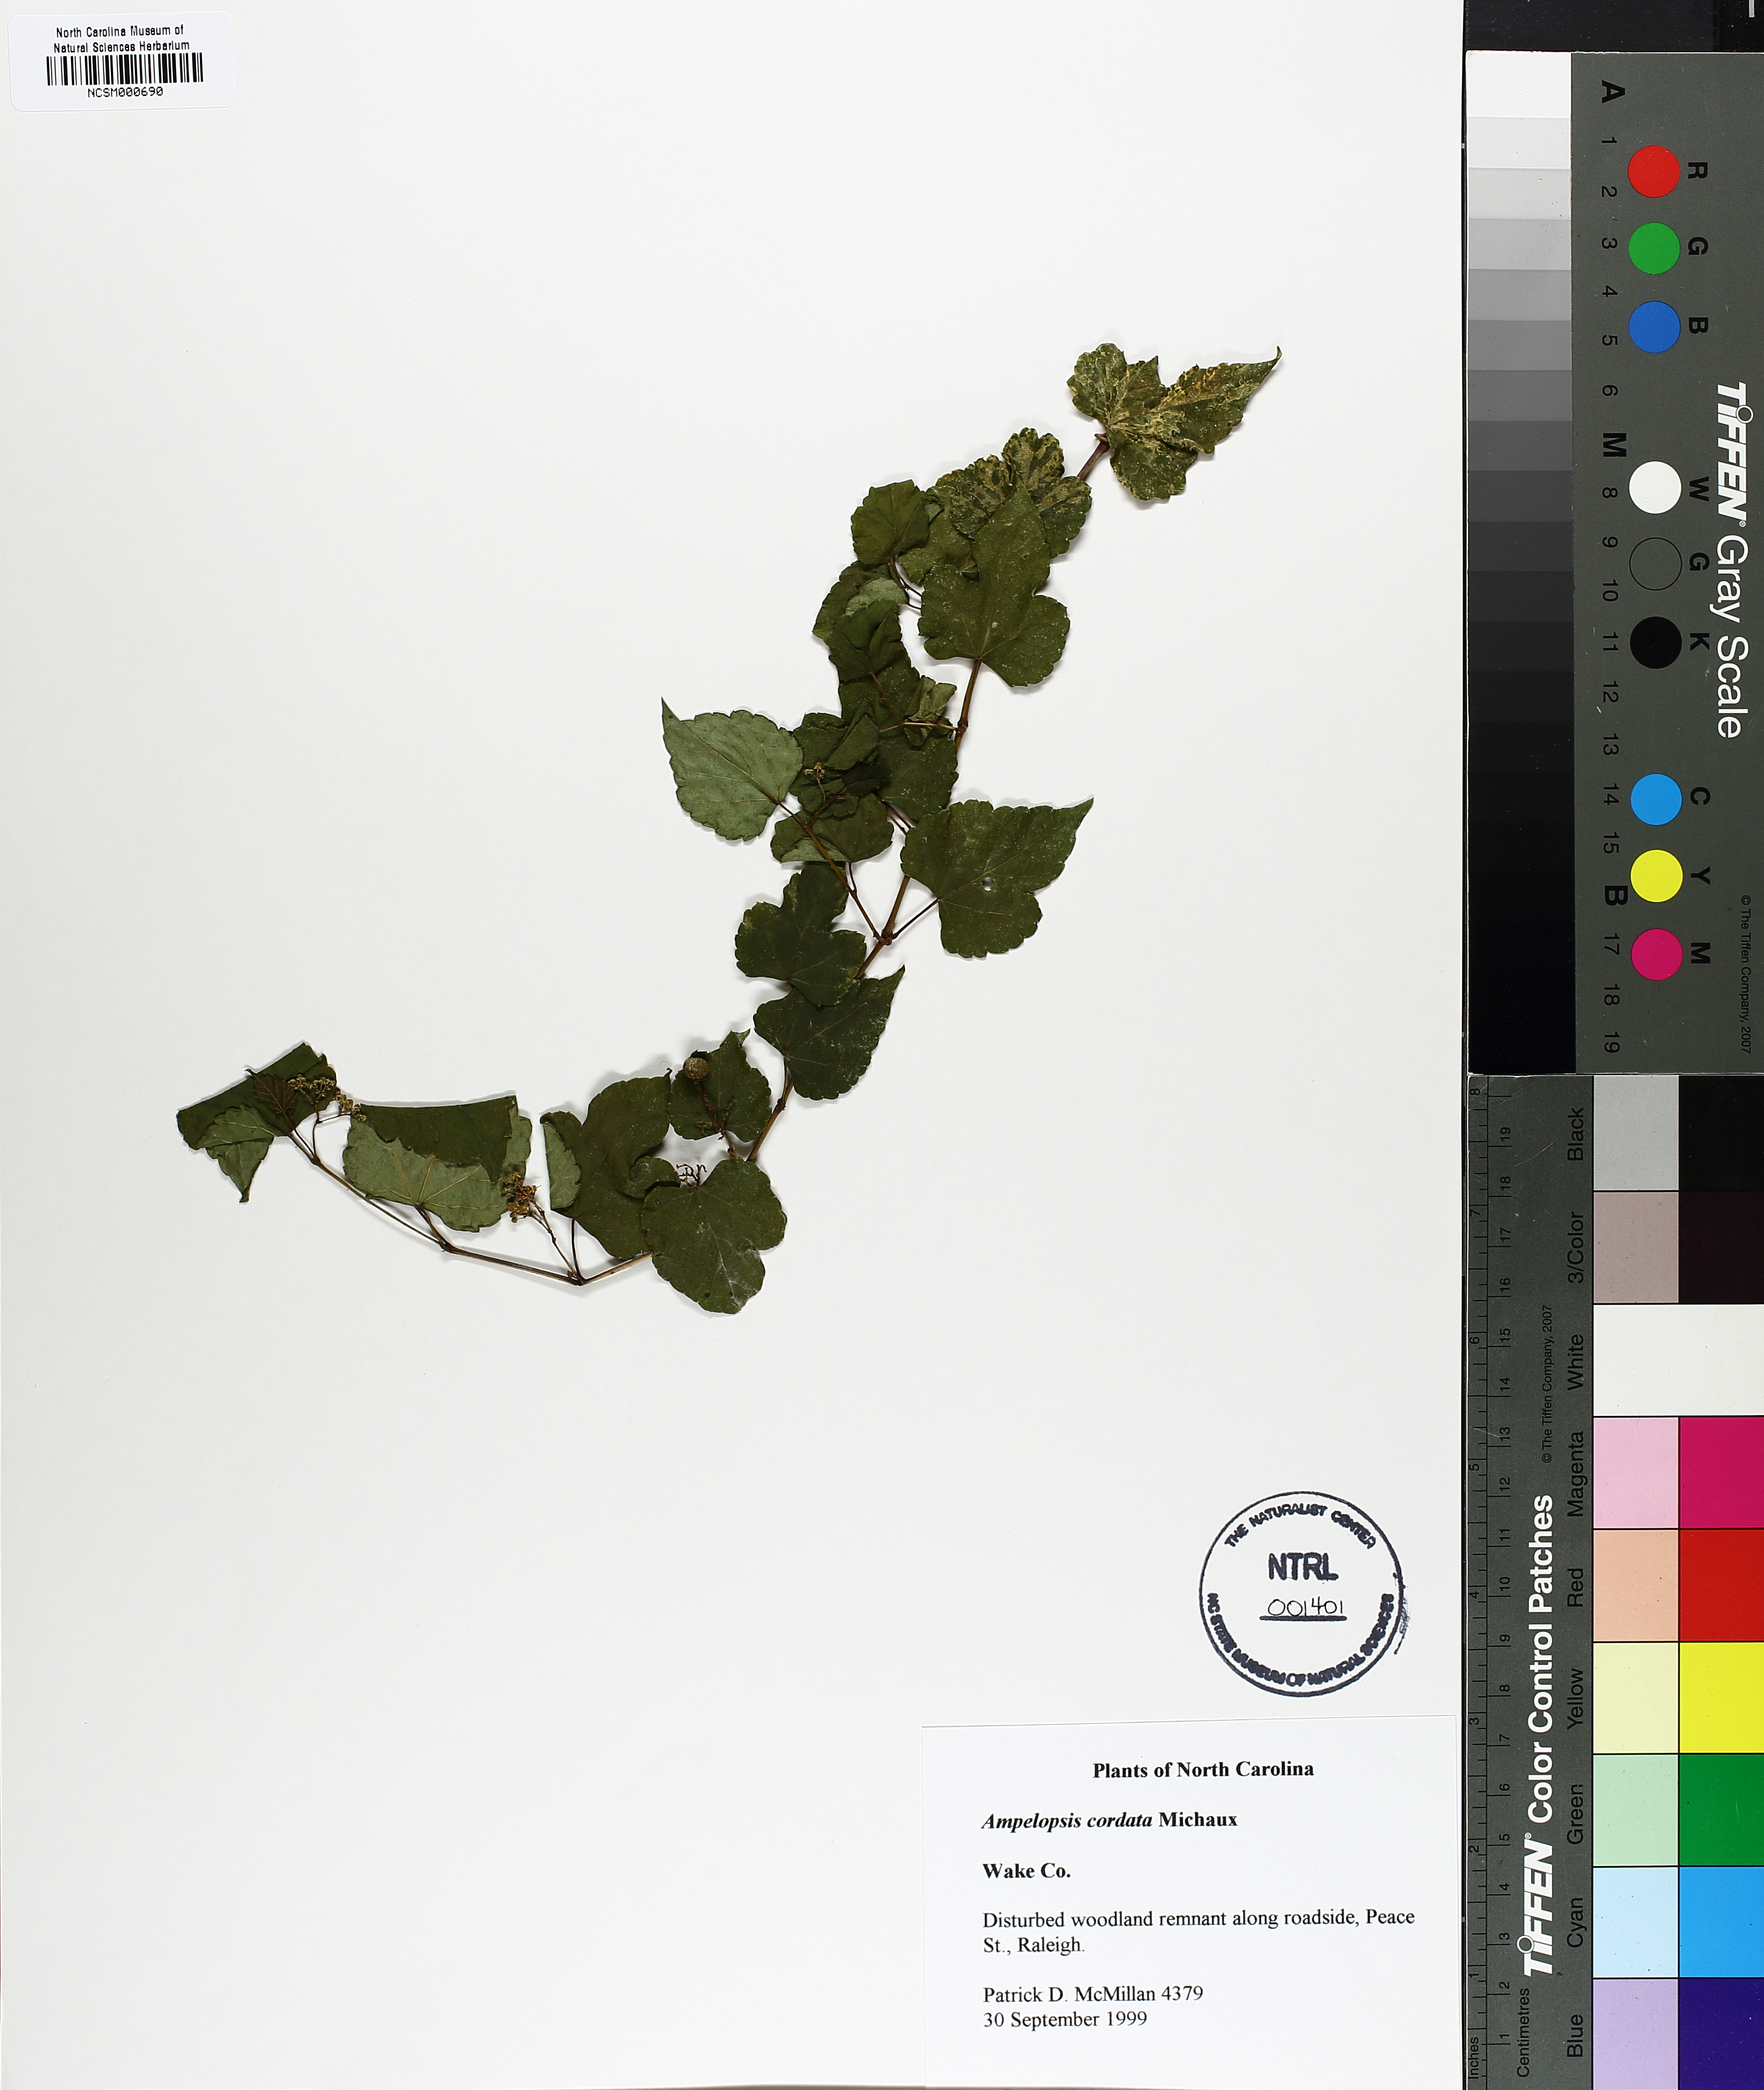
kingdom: Plantae
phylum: Tracheophyta
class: Magnoliopsida
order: Vitales
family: Vitaceae
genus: Ampelopsis
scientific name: Ampelopsis cordata
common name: Heart-leaf ampelopsis
